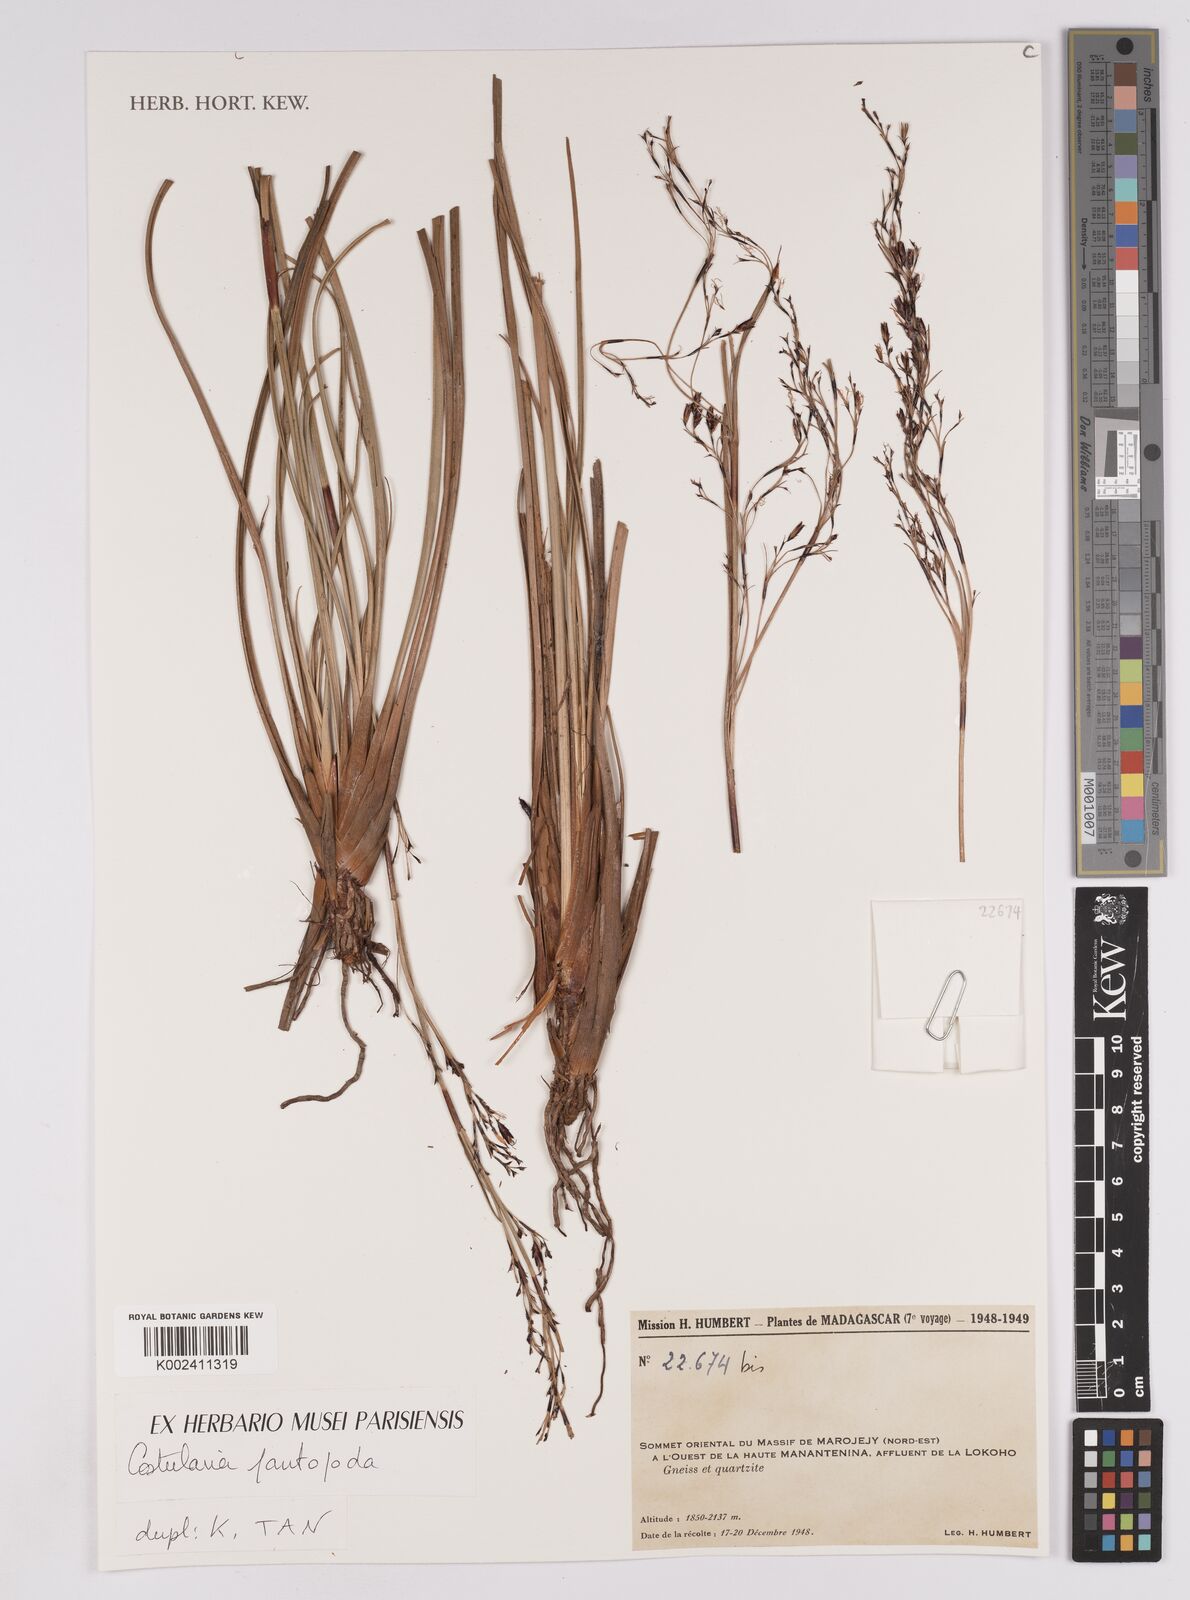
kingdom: Plantae
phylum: Tracheophyta
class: Liliopsida
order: Poales
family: Cyperaceae
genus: Costularia
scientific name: Costularia
